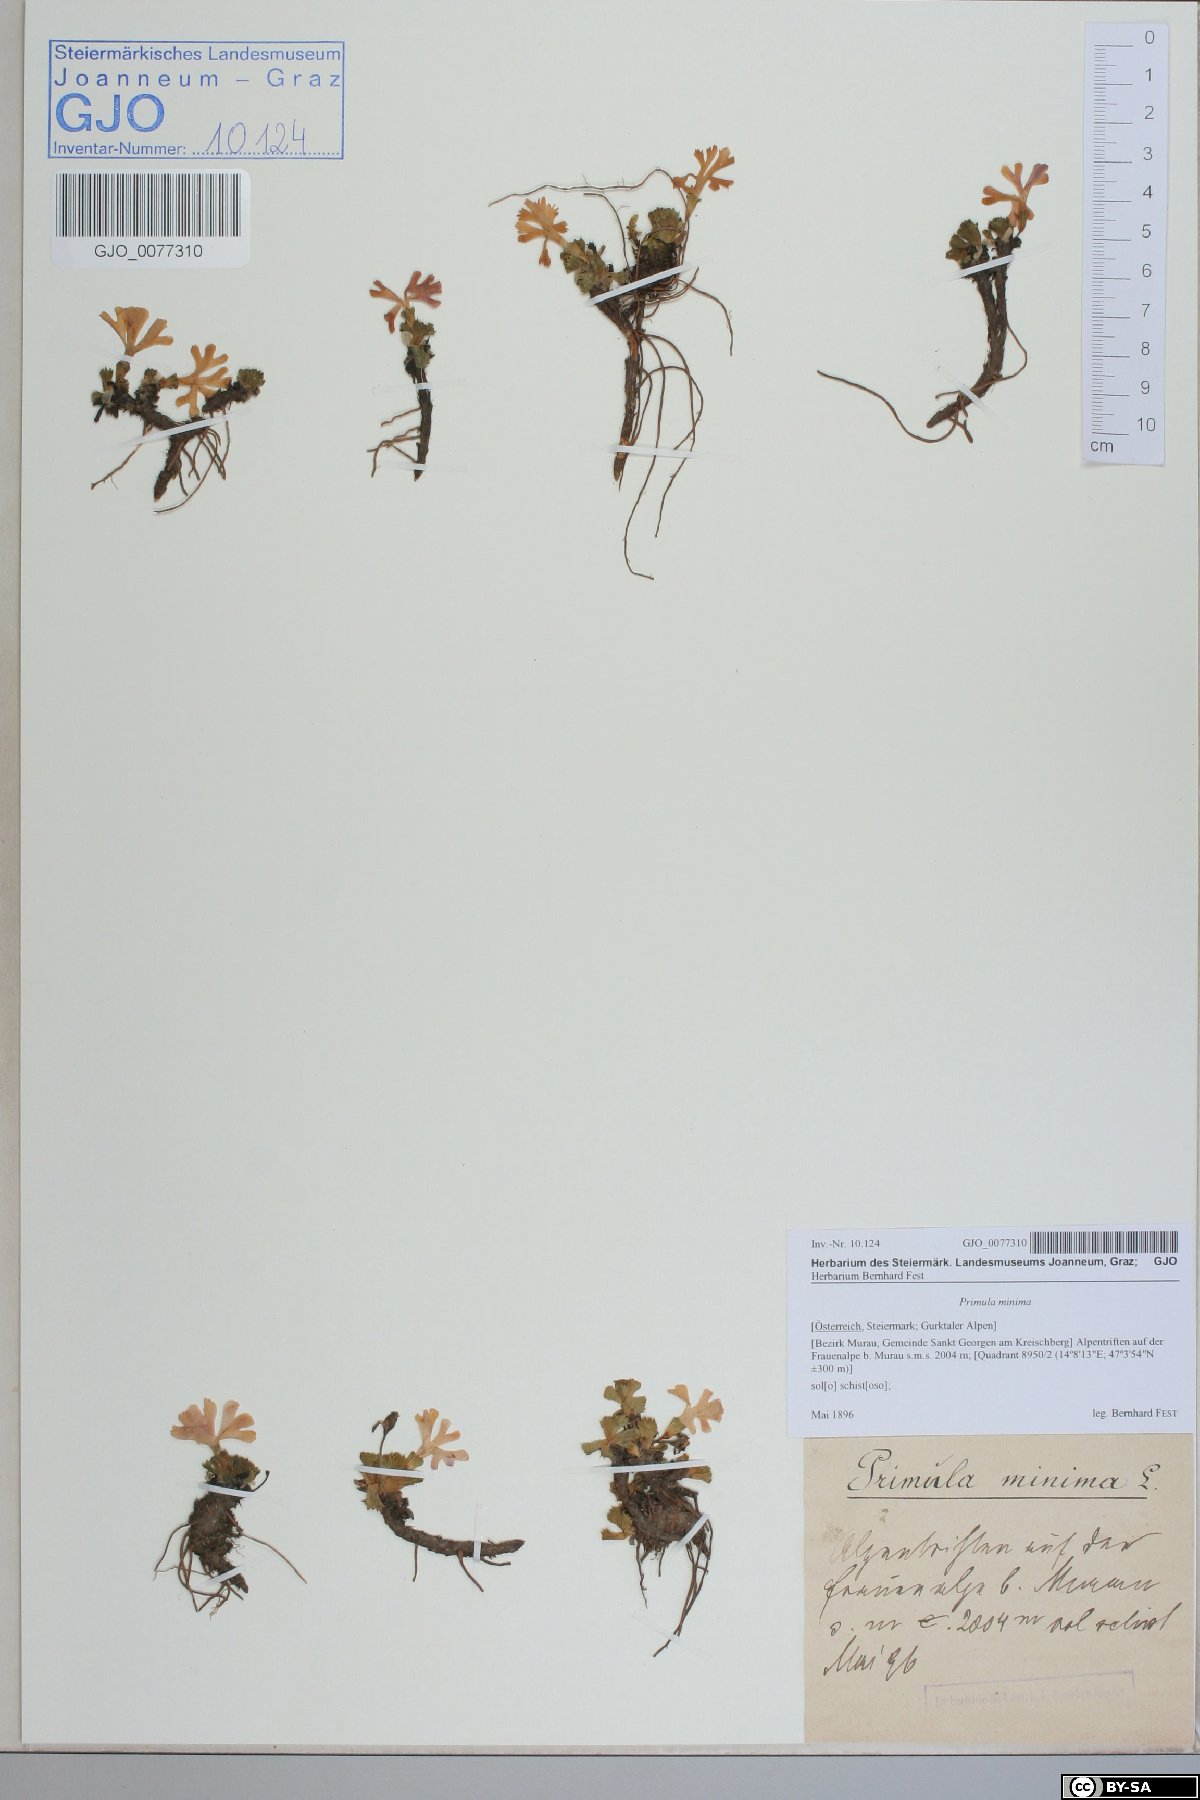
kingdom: Plantae
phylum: Tracheophyta
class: Magnoliopsida
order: Ericales
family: Primulaceae
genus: Primula
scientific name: Primula minima
